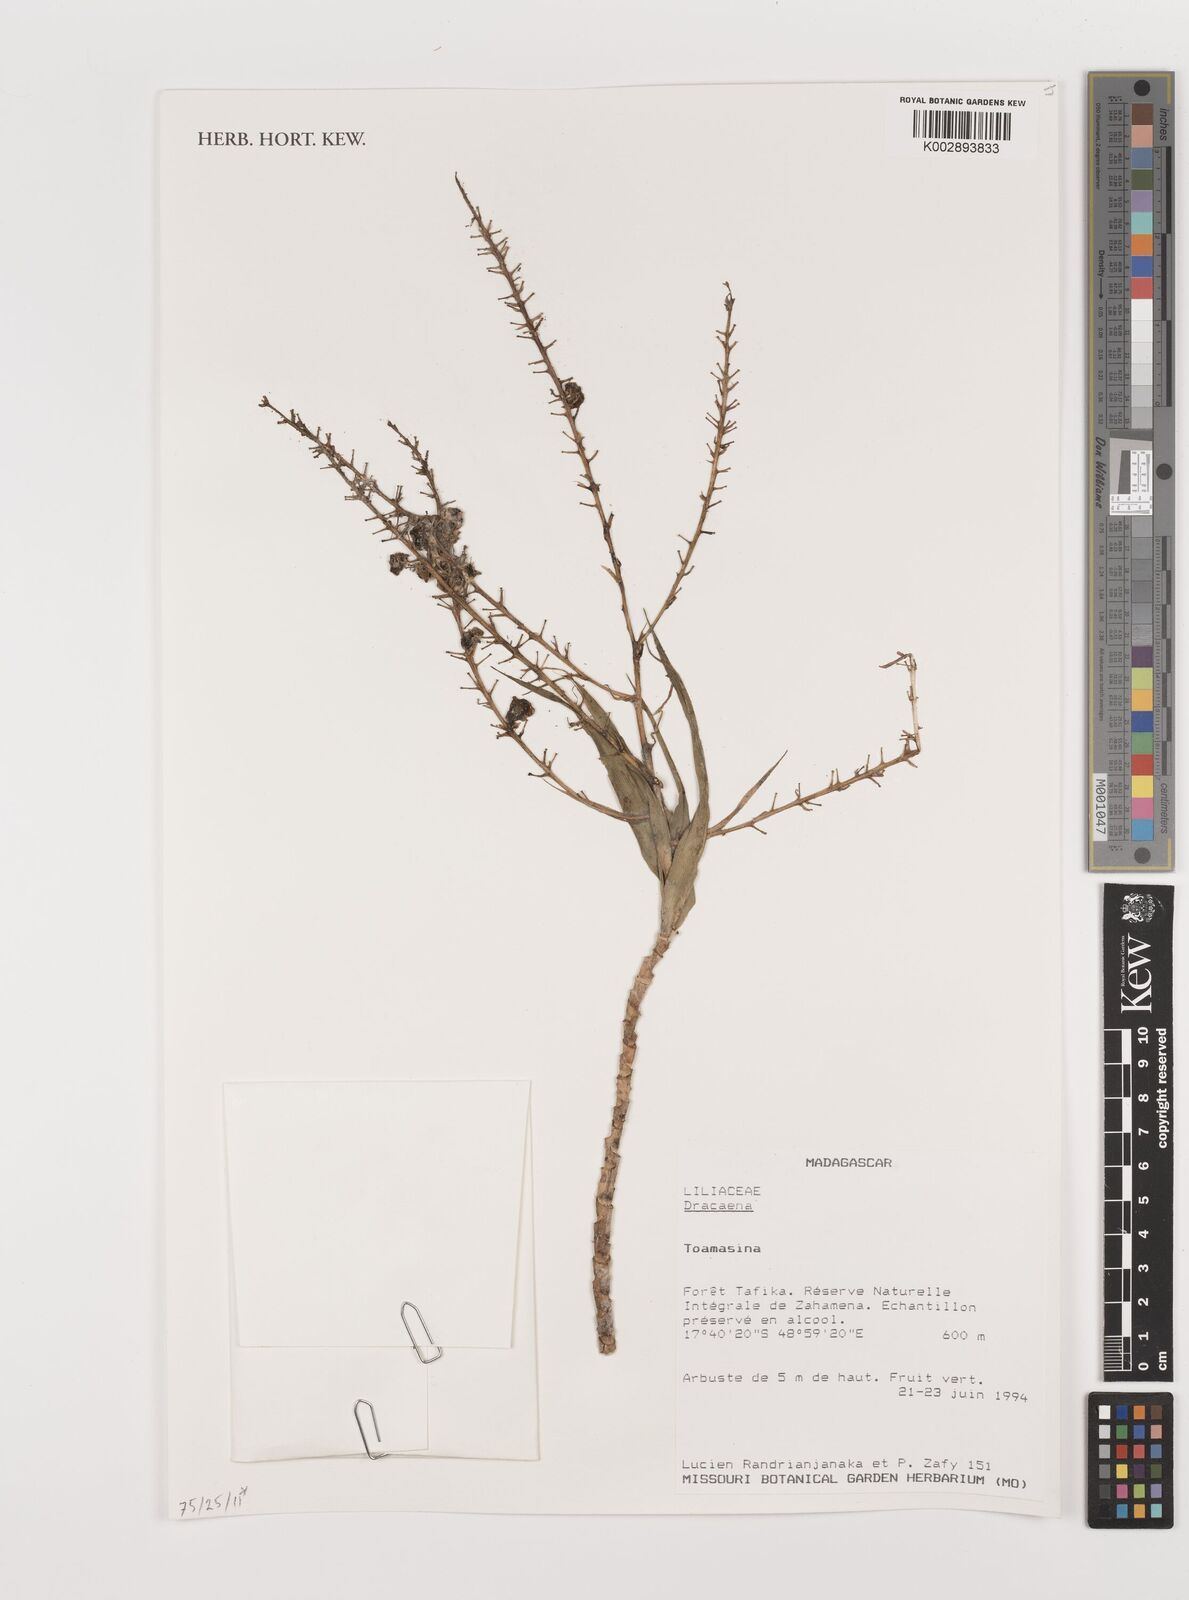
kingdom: Plantae
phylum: Tracheophyta
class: Liliopsida
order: Asparagales
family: Asparagaceae
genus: Dracaena
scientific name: Dracaena
